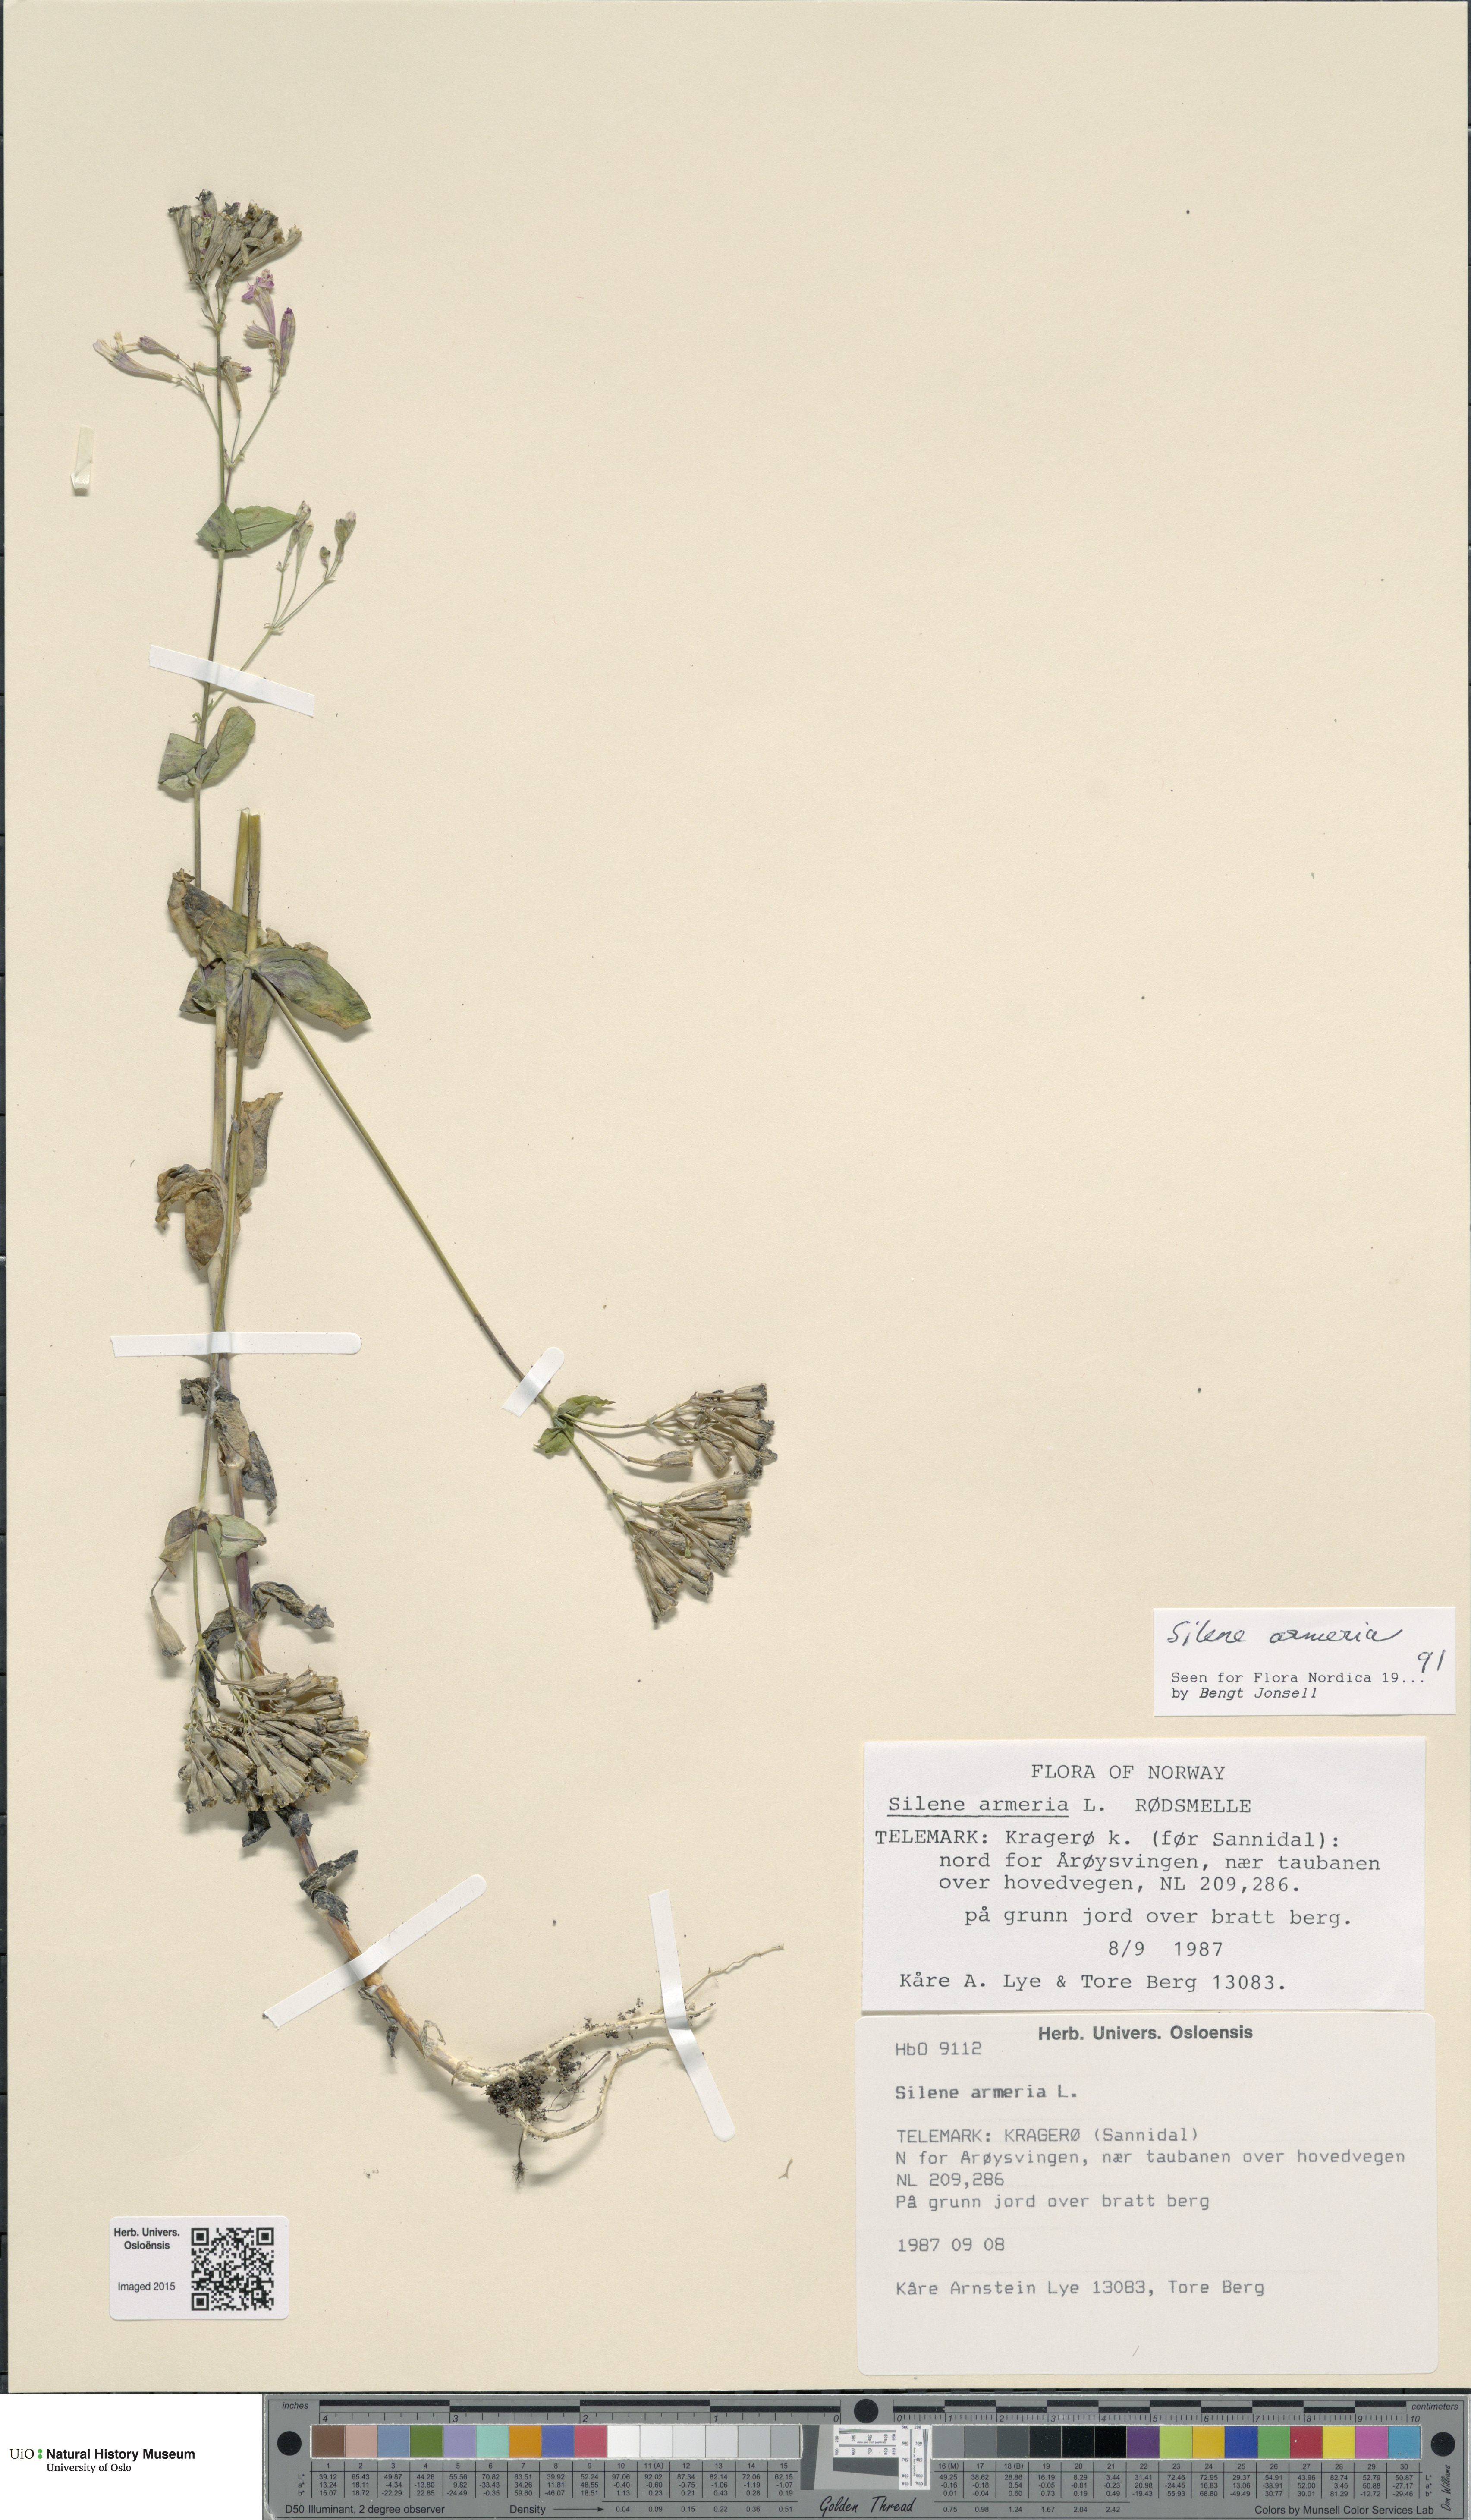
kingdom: Plantae
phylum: Tracheophyta
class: Magnoliopsida
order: Caryophyllales
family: Caryophyllaceae
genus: Atocion
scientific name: Atocion armeria
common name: Sweet william catchfly
